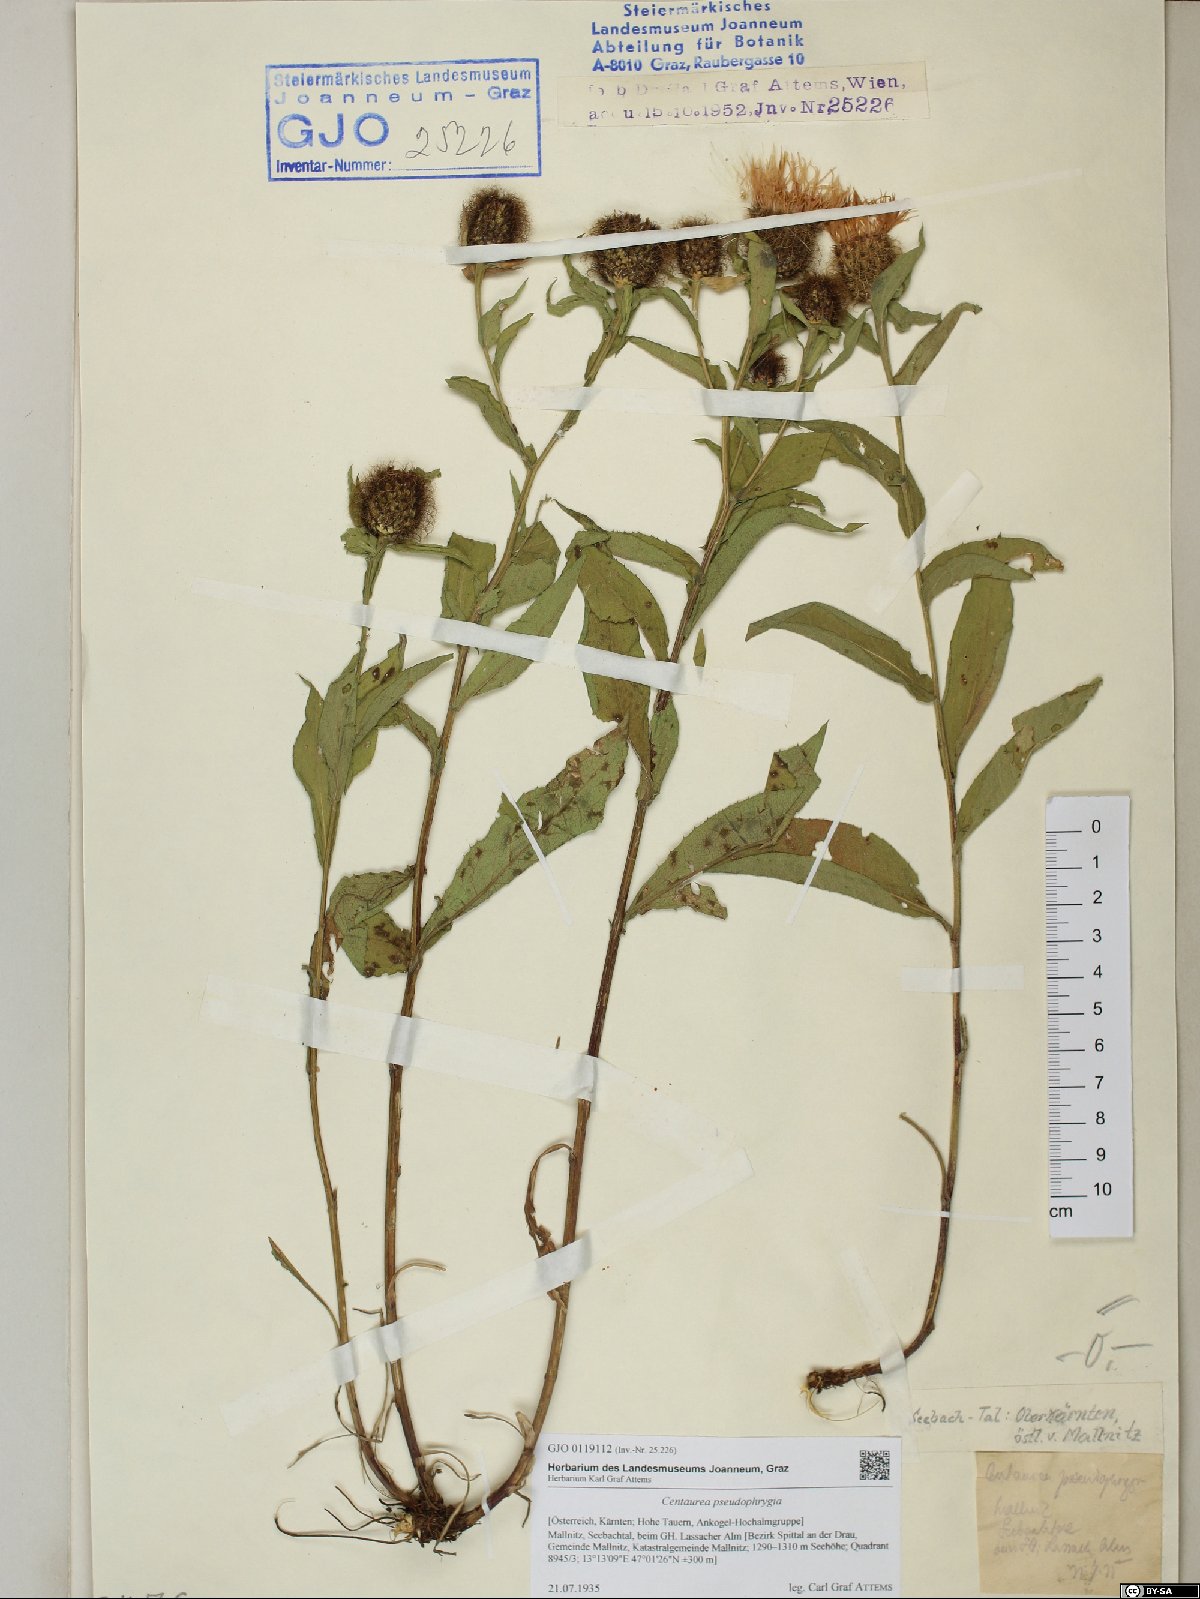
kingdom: Plantae
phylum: Tracheophyta
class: Magnoliopsida
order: Asterales
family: Asteraceae
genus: Centaurea
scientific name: Centaurea pseudophrygia
